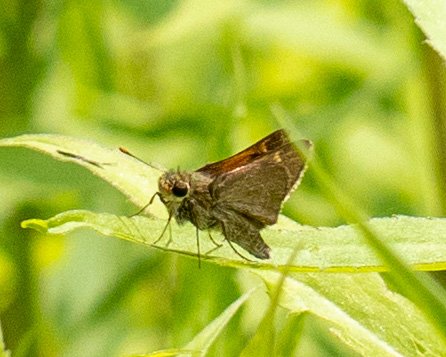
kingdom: Animalia
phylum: Arthropoda
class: Insecta
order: Lepidoptera
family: Hesperiidae
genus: Polites
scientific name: Polites themistocles
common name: Tawny-edged Skipper
